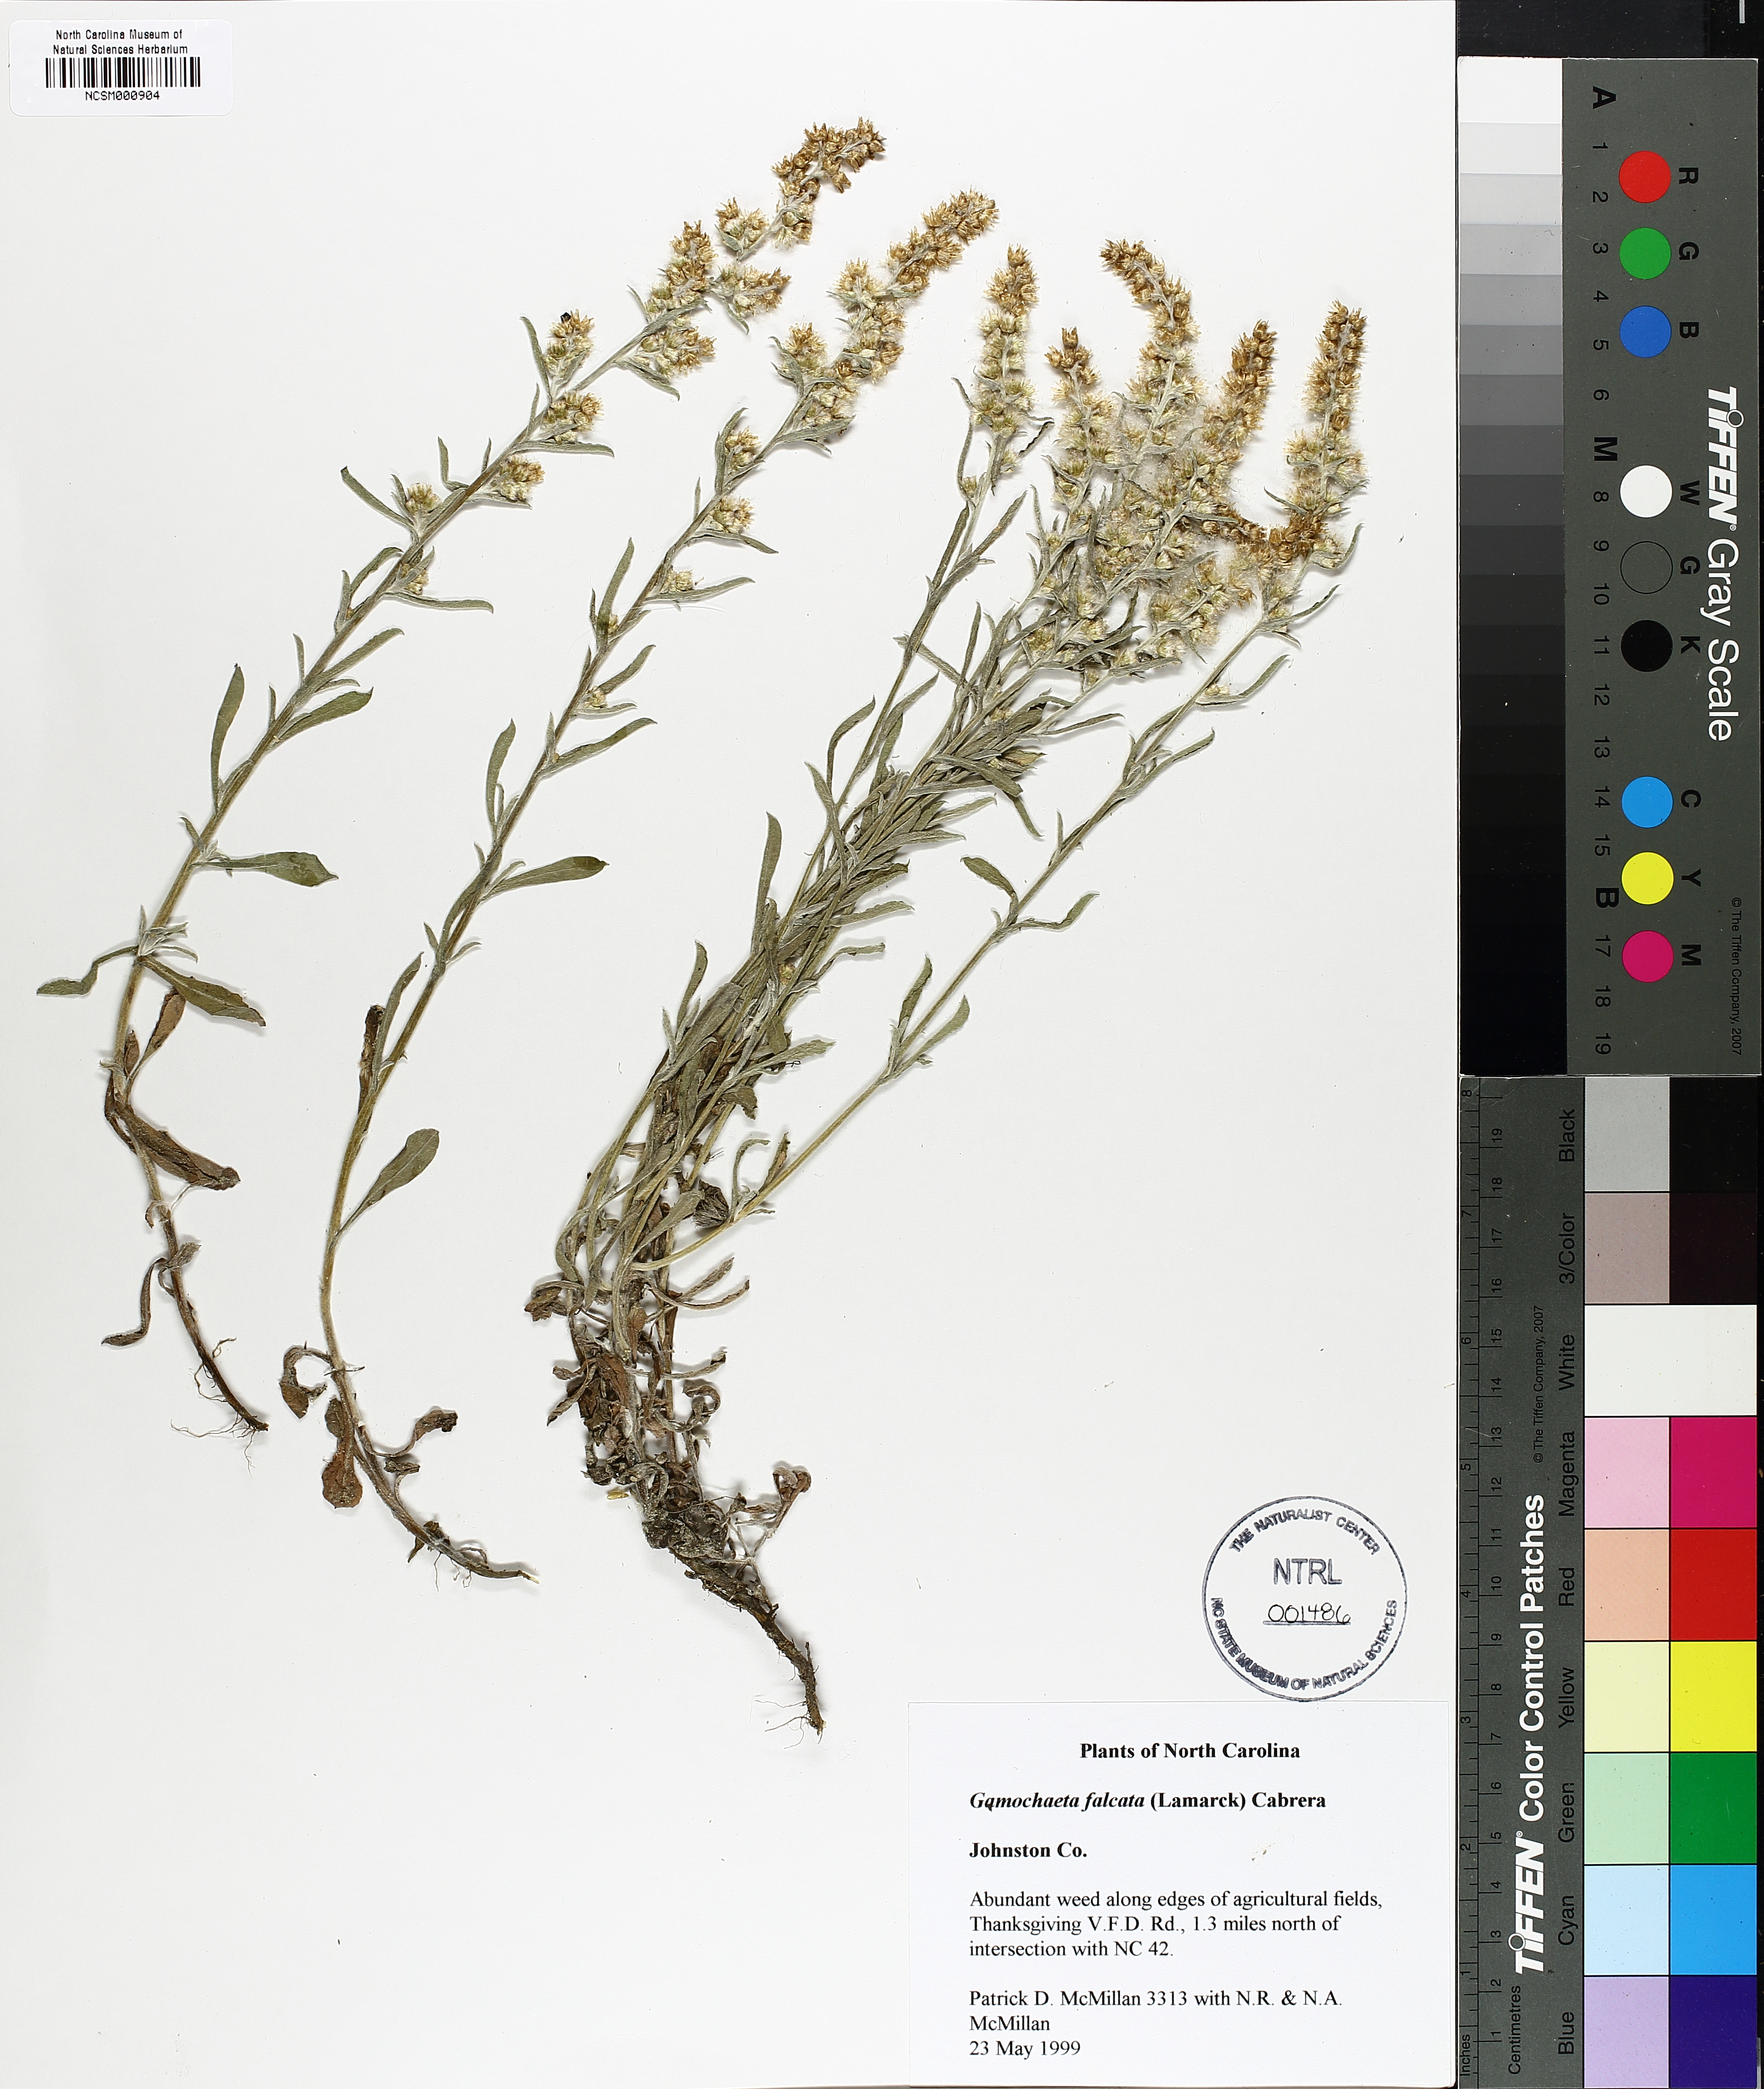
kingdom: Plantae
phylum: Tracheophyta
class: Magnoliopsida
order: Asterales
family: Asteraceae
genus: Gamochaeta
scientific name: Gamochaeta falcata
